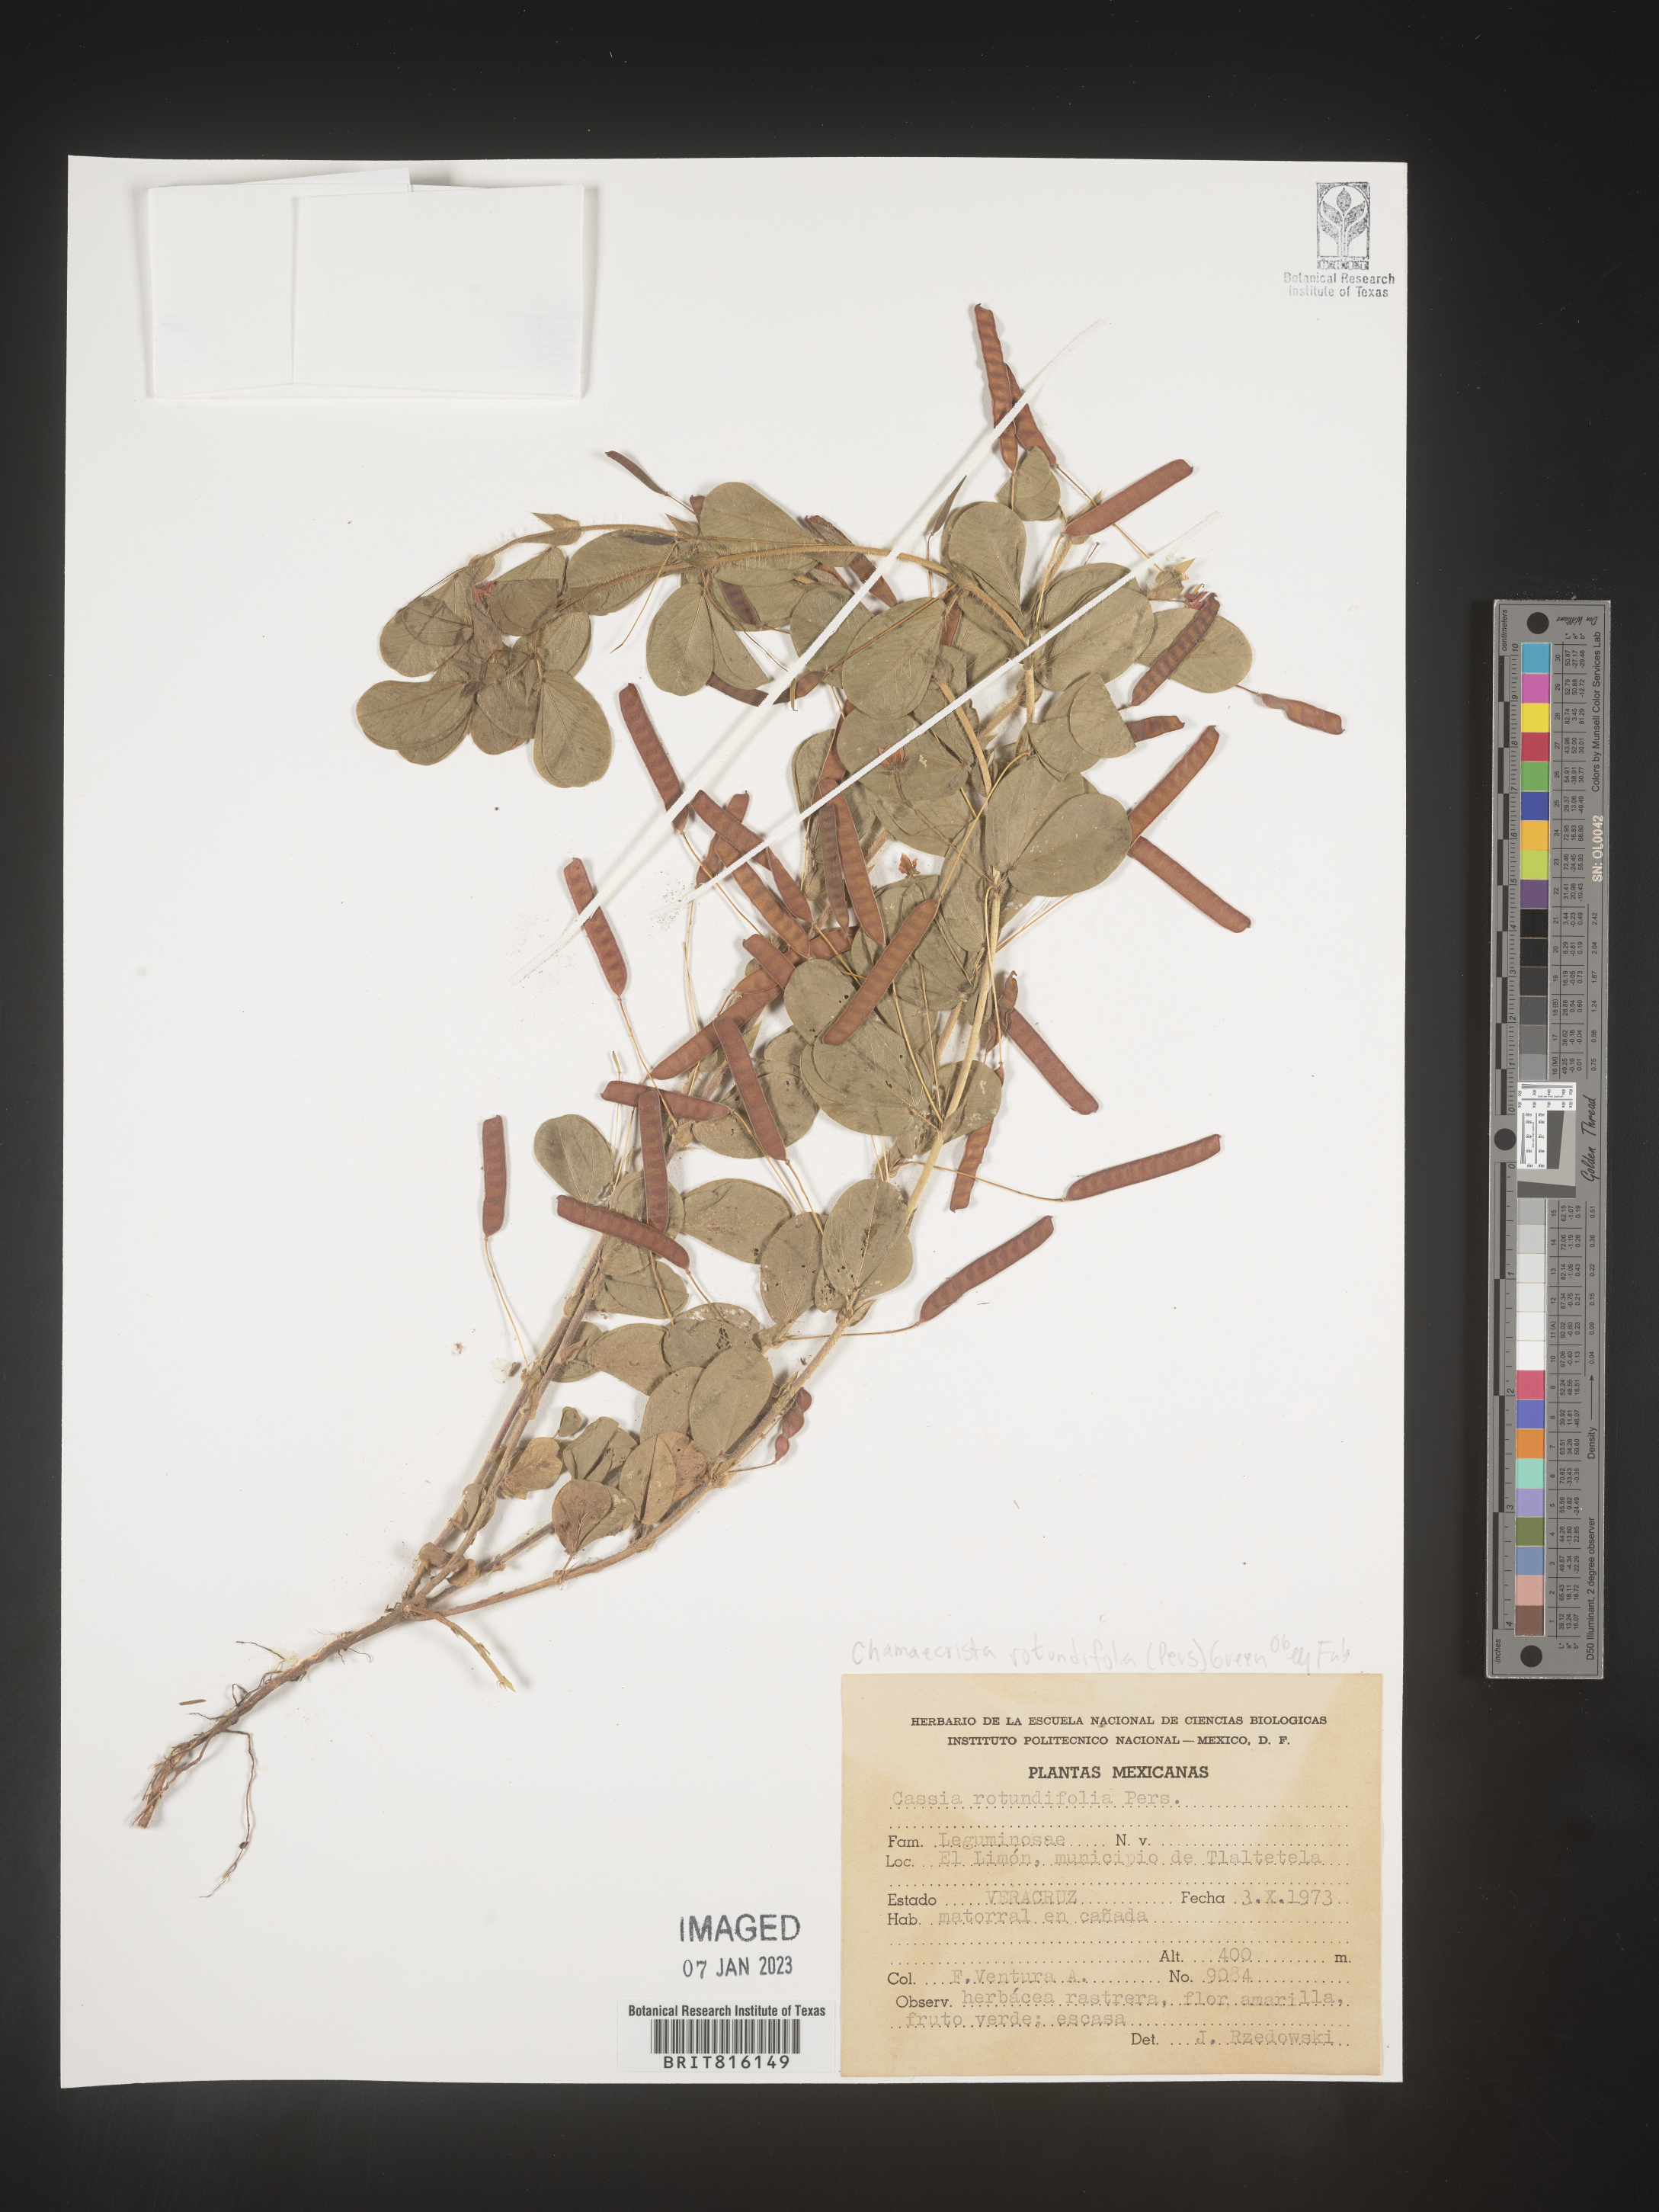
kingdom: Plantae
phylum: Tracheophyta
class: Magnoliopsida
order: Fabales
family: Fabaceae
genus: Chamaecrista
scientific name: Chamaecrista
